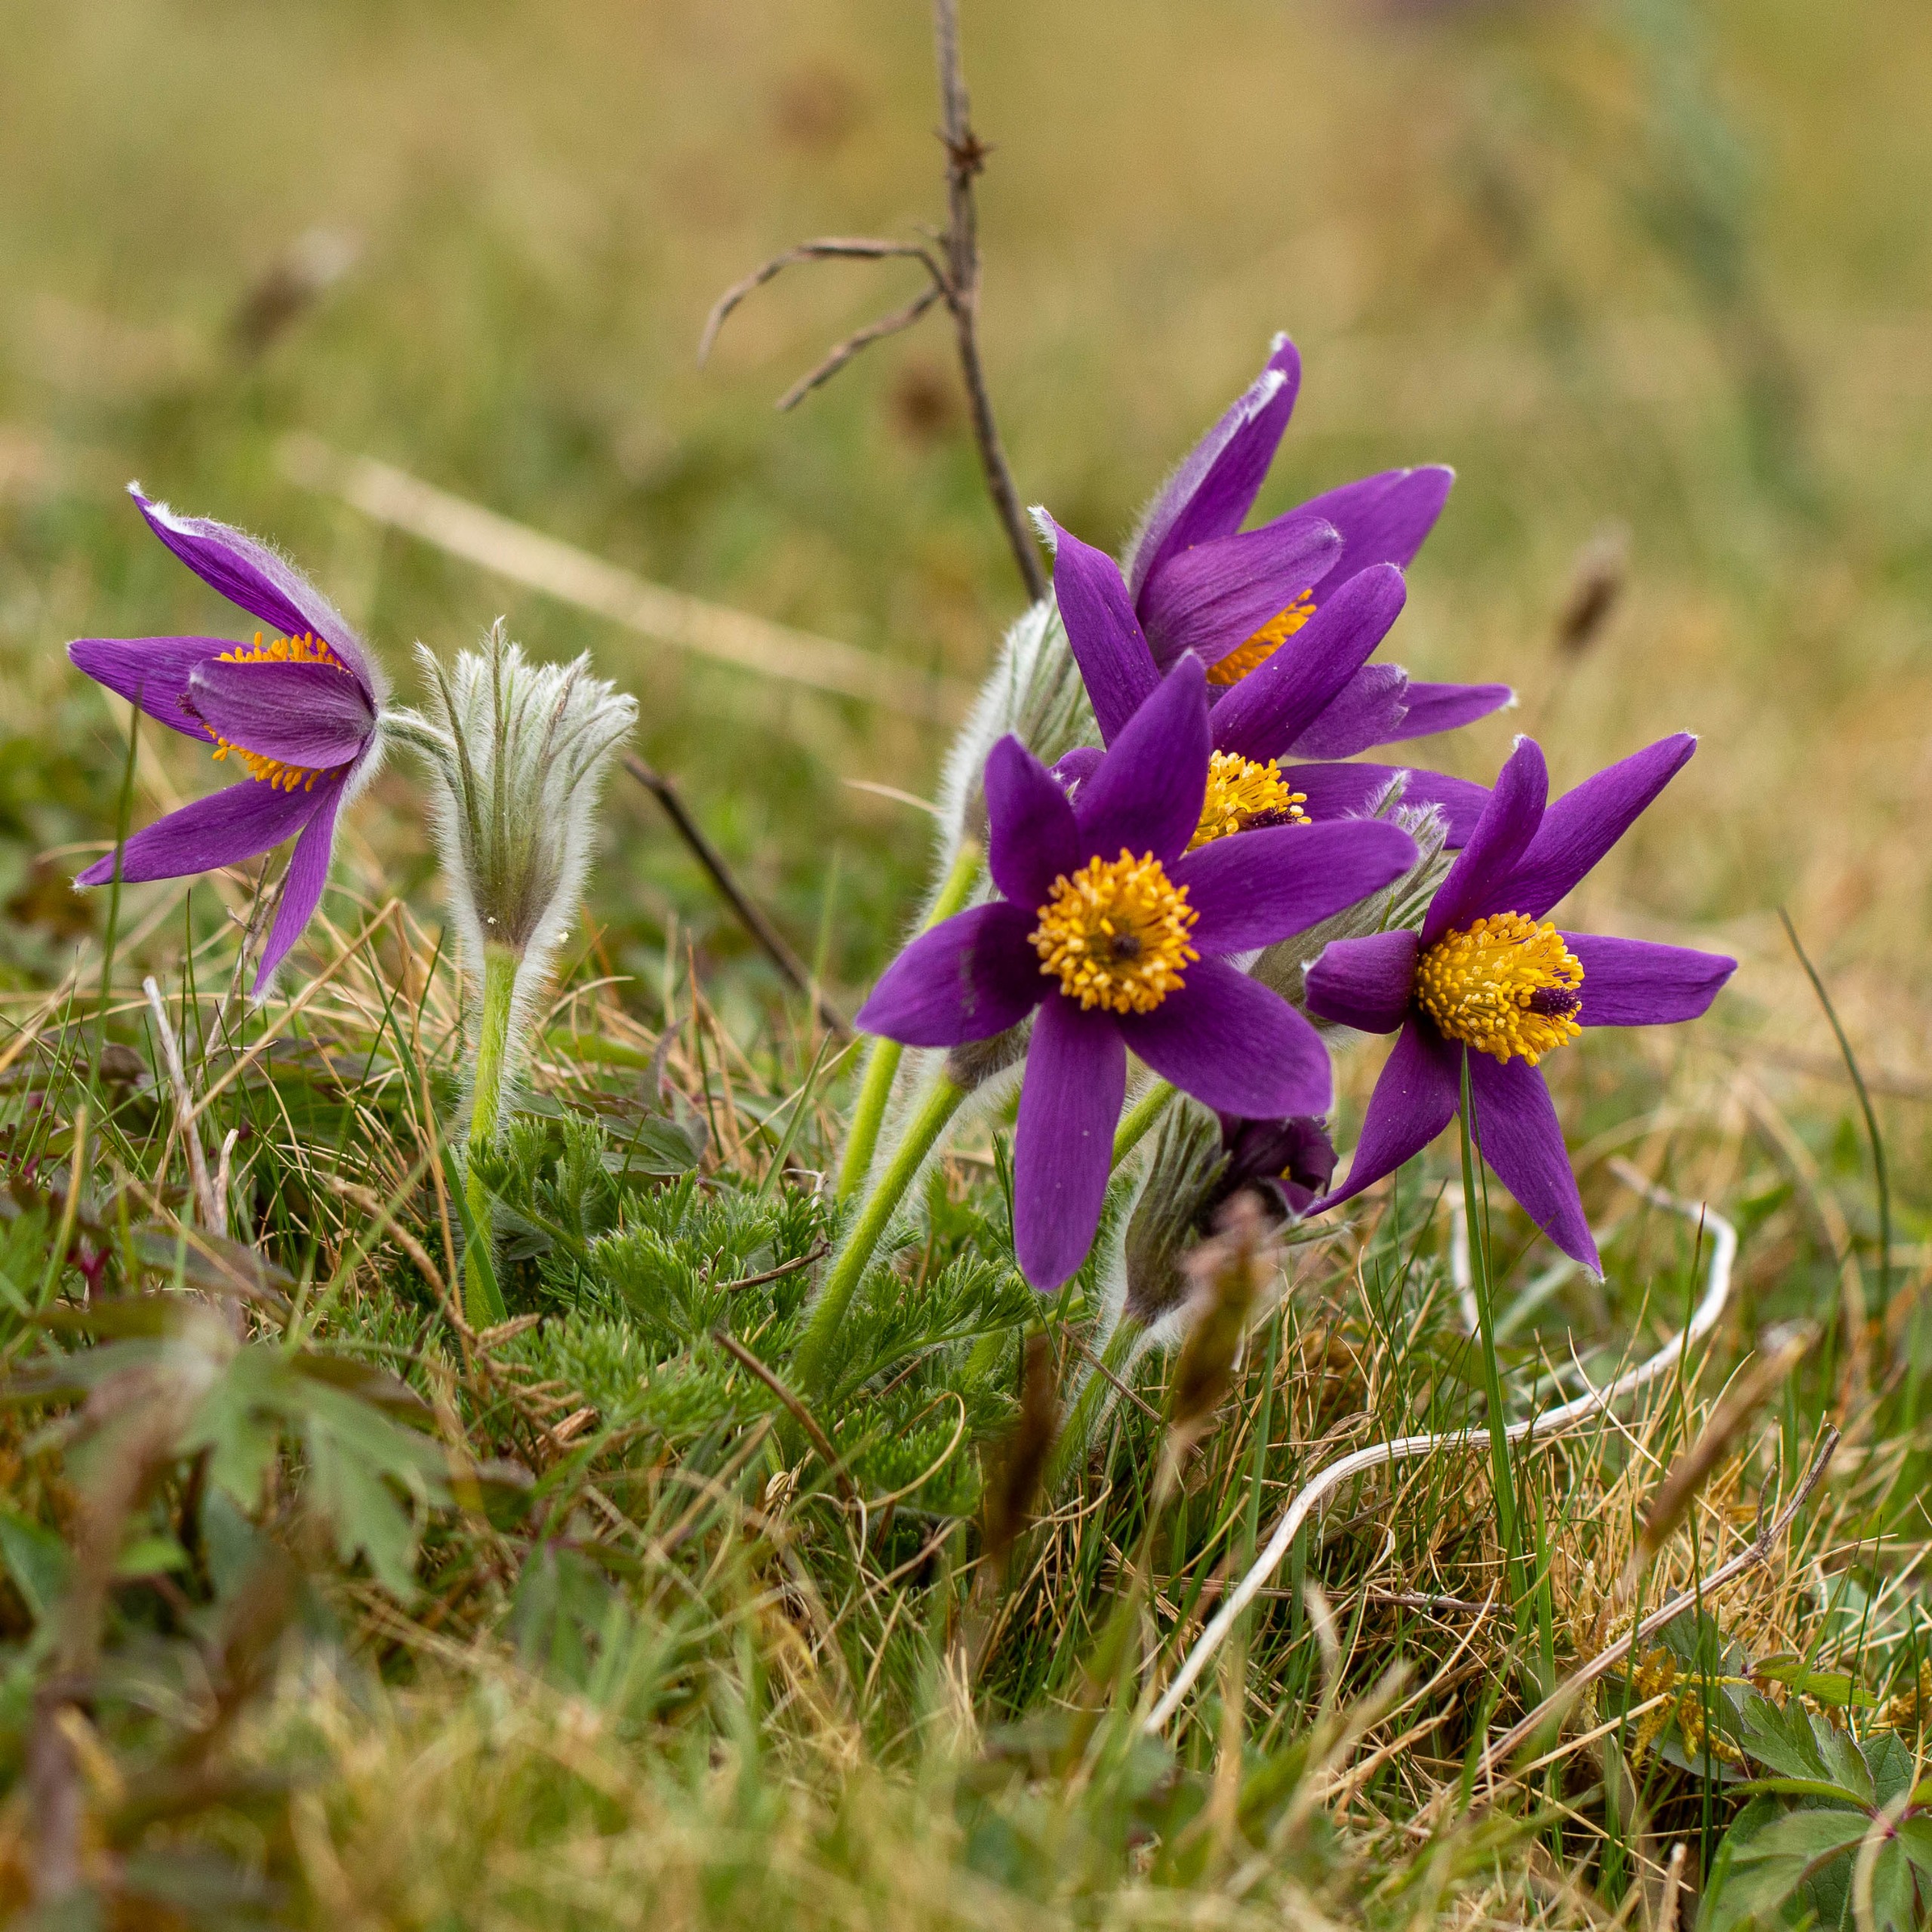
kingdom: Plantae
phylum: Tracheophyta
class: Magnoliopsida
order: Ranunculales
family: Ranunculaceae
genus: Pulsatilla
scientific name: Pulsatilla vulgaris
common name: Opret kobjælde
